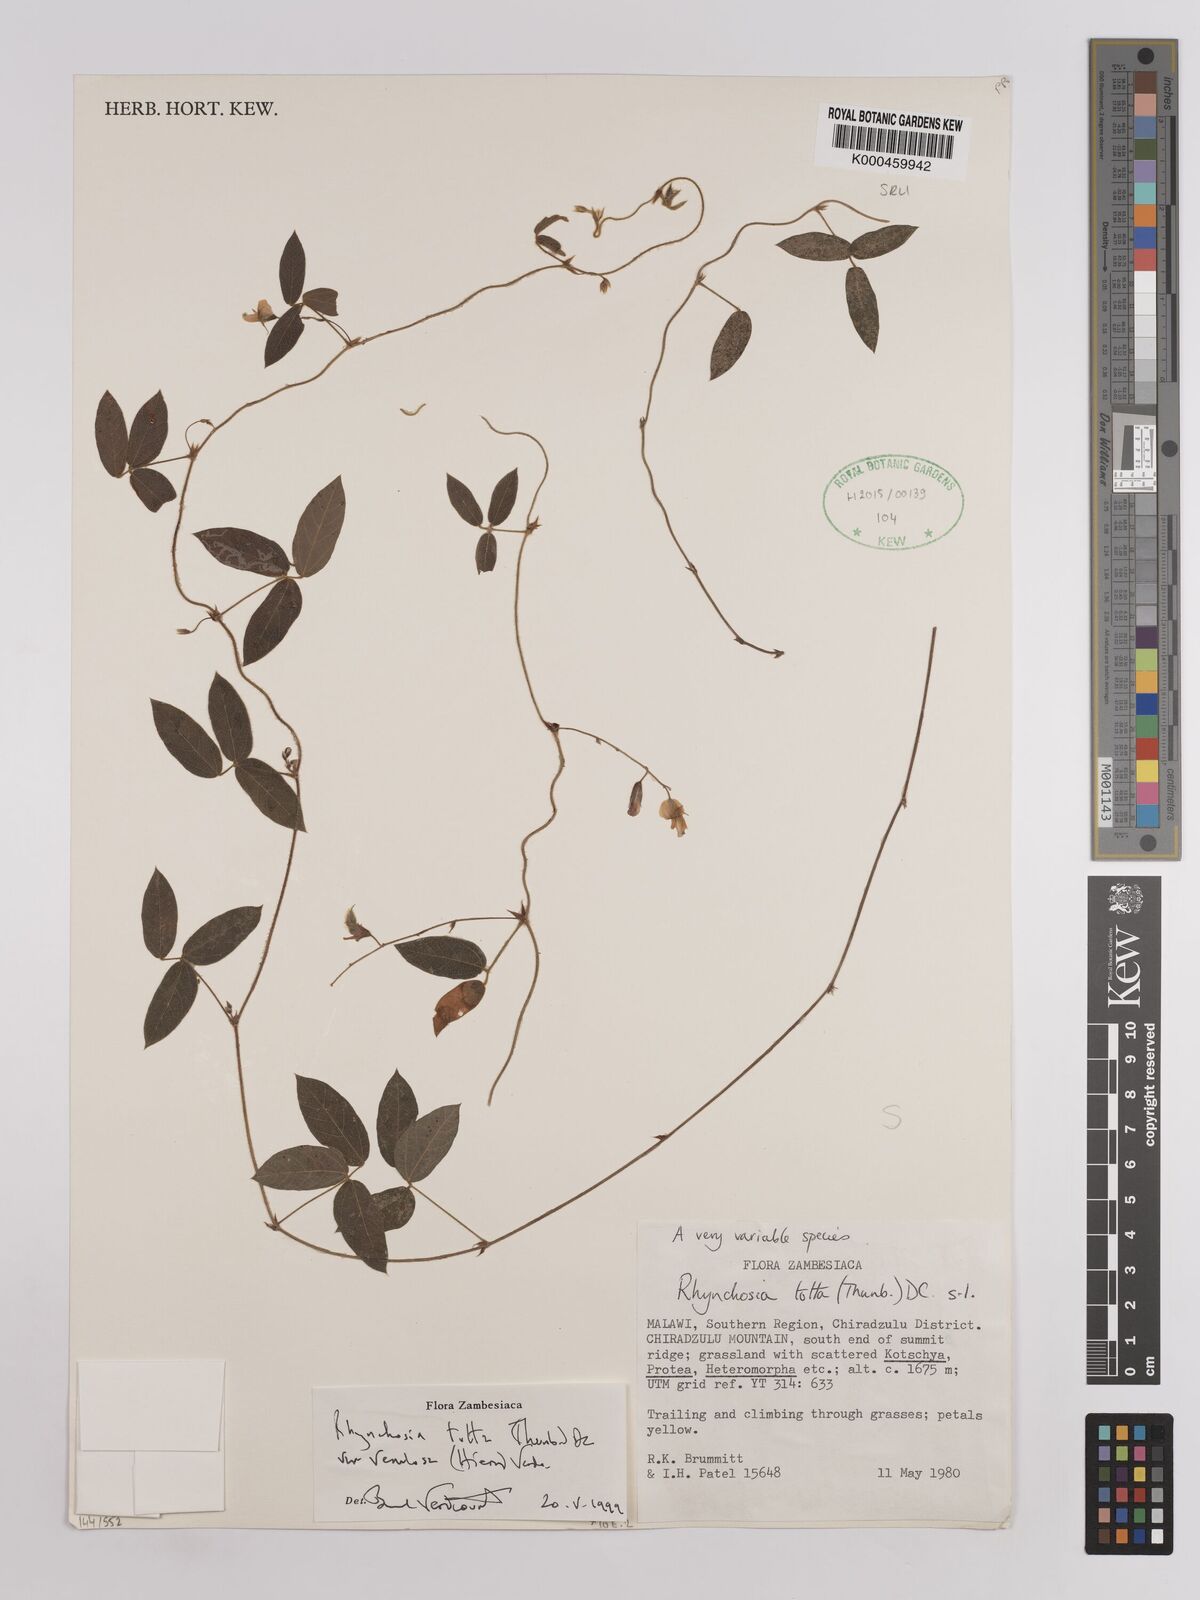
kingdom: Plantae
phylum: Tracheophyta
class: Magnoliopsida
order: Fabales
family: Fabaceae
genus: Rhynchosia
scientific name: Rhynchosia totta
